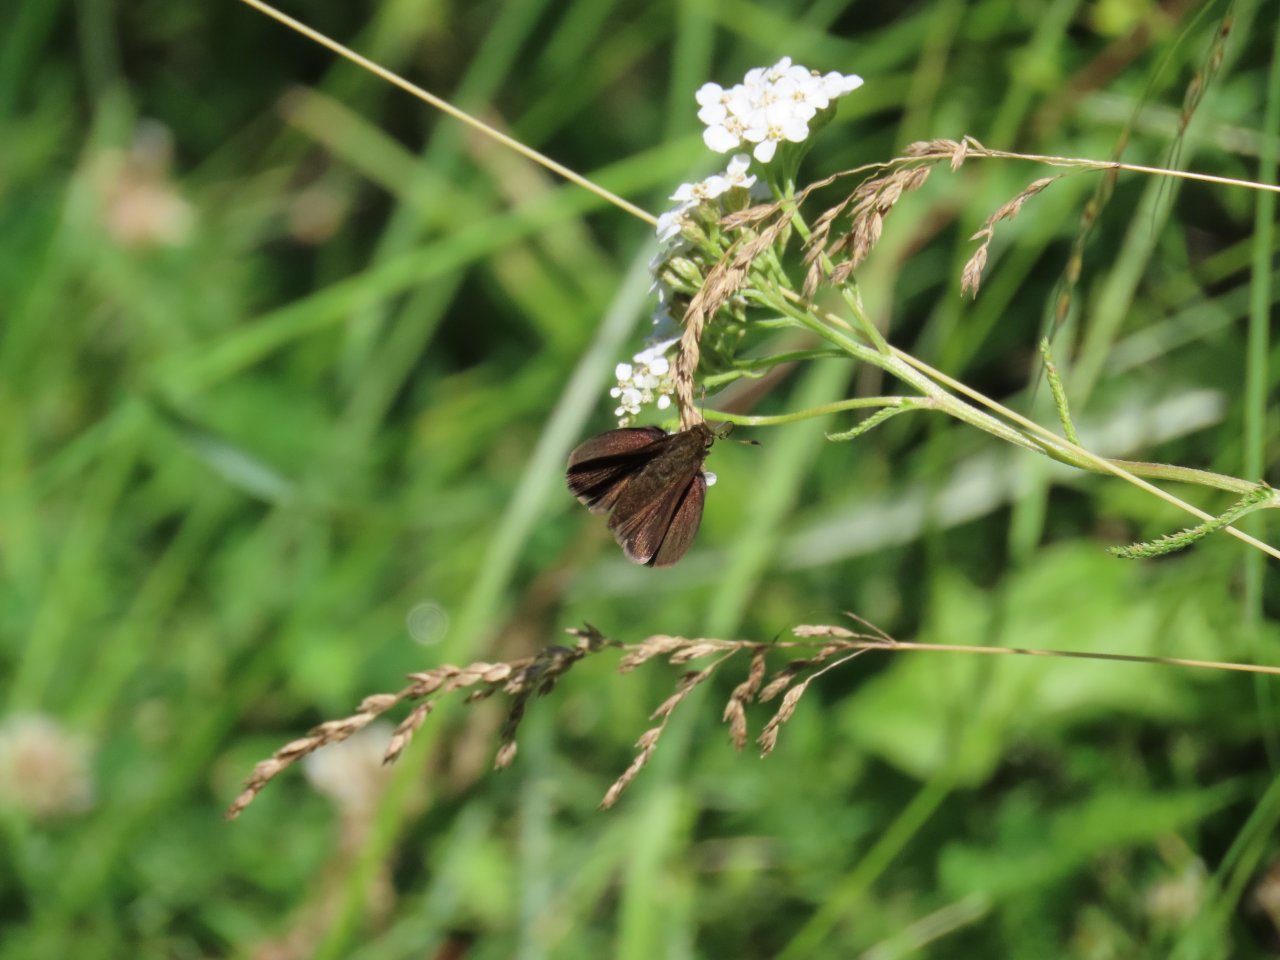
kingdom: Animalia
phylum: Arthropoda
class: Insecta
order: Lepidoptera
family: Hesperiidae
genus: Euphyes
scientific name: Euphyes vestris
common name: Dun Skipper
